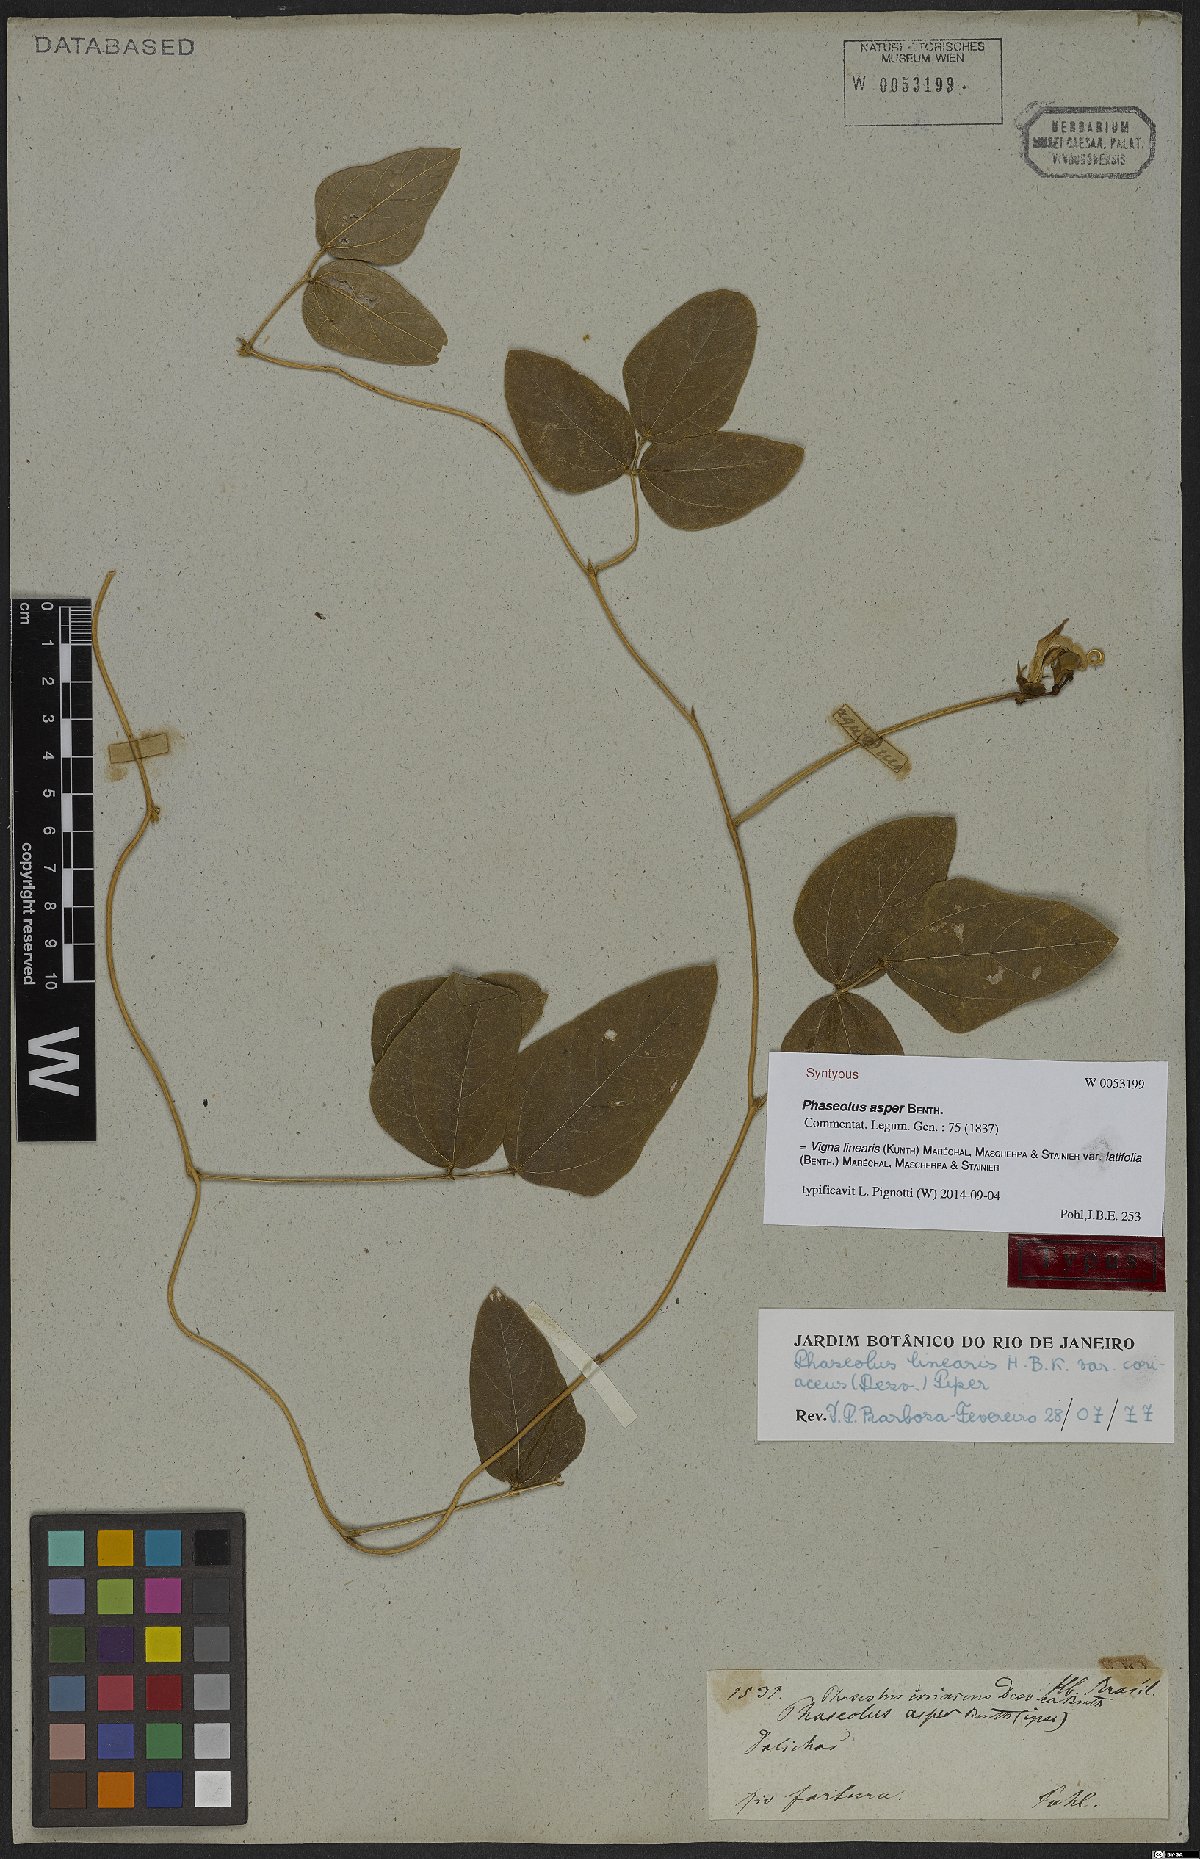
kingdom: Plantae
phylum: Tracheophyta
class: Magnoliopsida
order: Fabales
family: Fabaceae
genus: Helicotropis
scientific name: Helicotropis linearis
